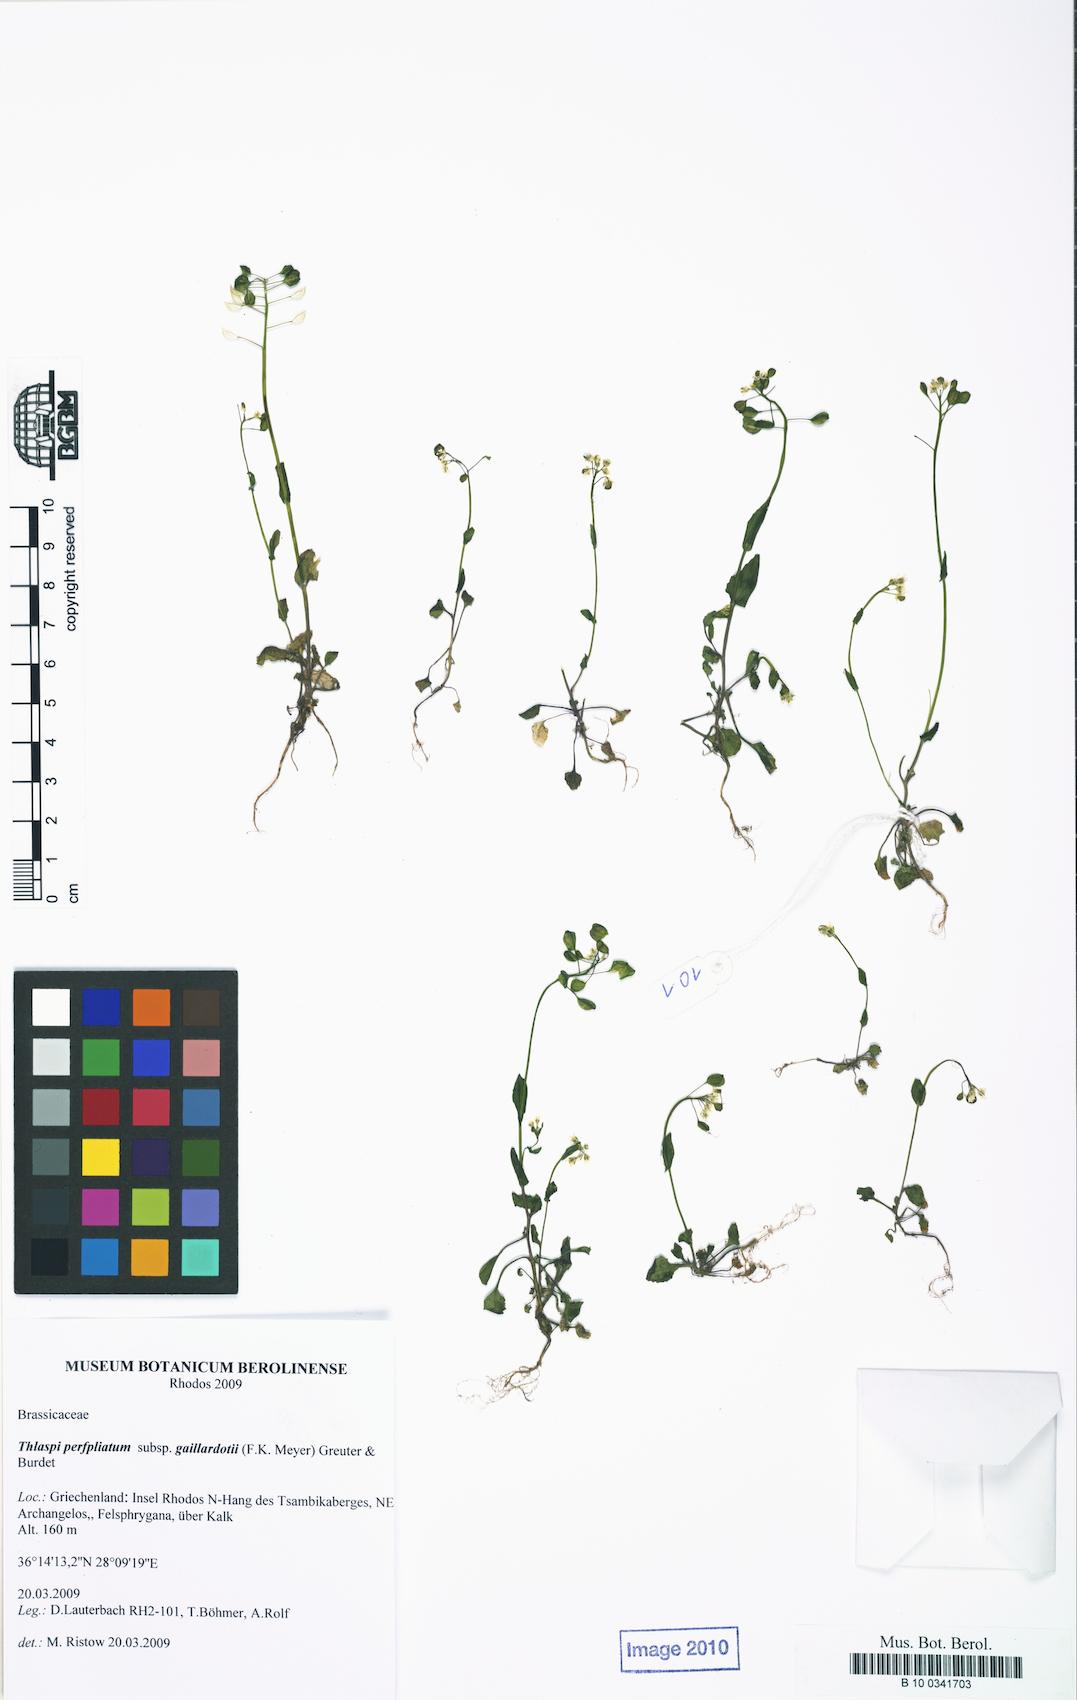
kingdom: Plantae
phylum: Tracheophyta
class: Magnoliopsida
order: Brassicales
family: Brassicaceae
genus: Noccaea
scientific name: Noccaea natolica
